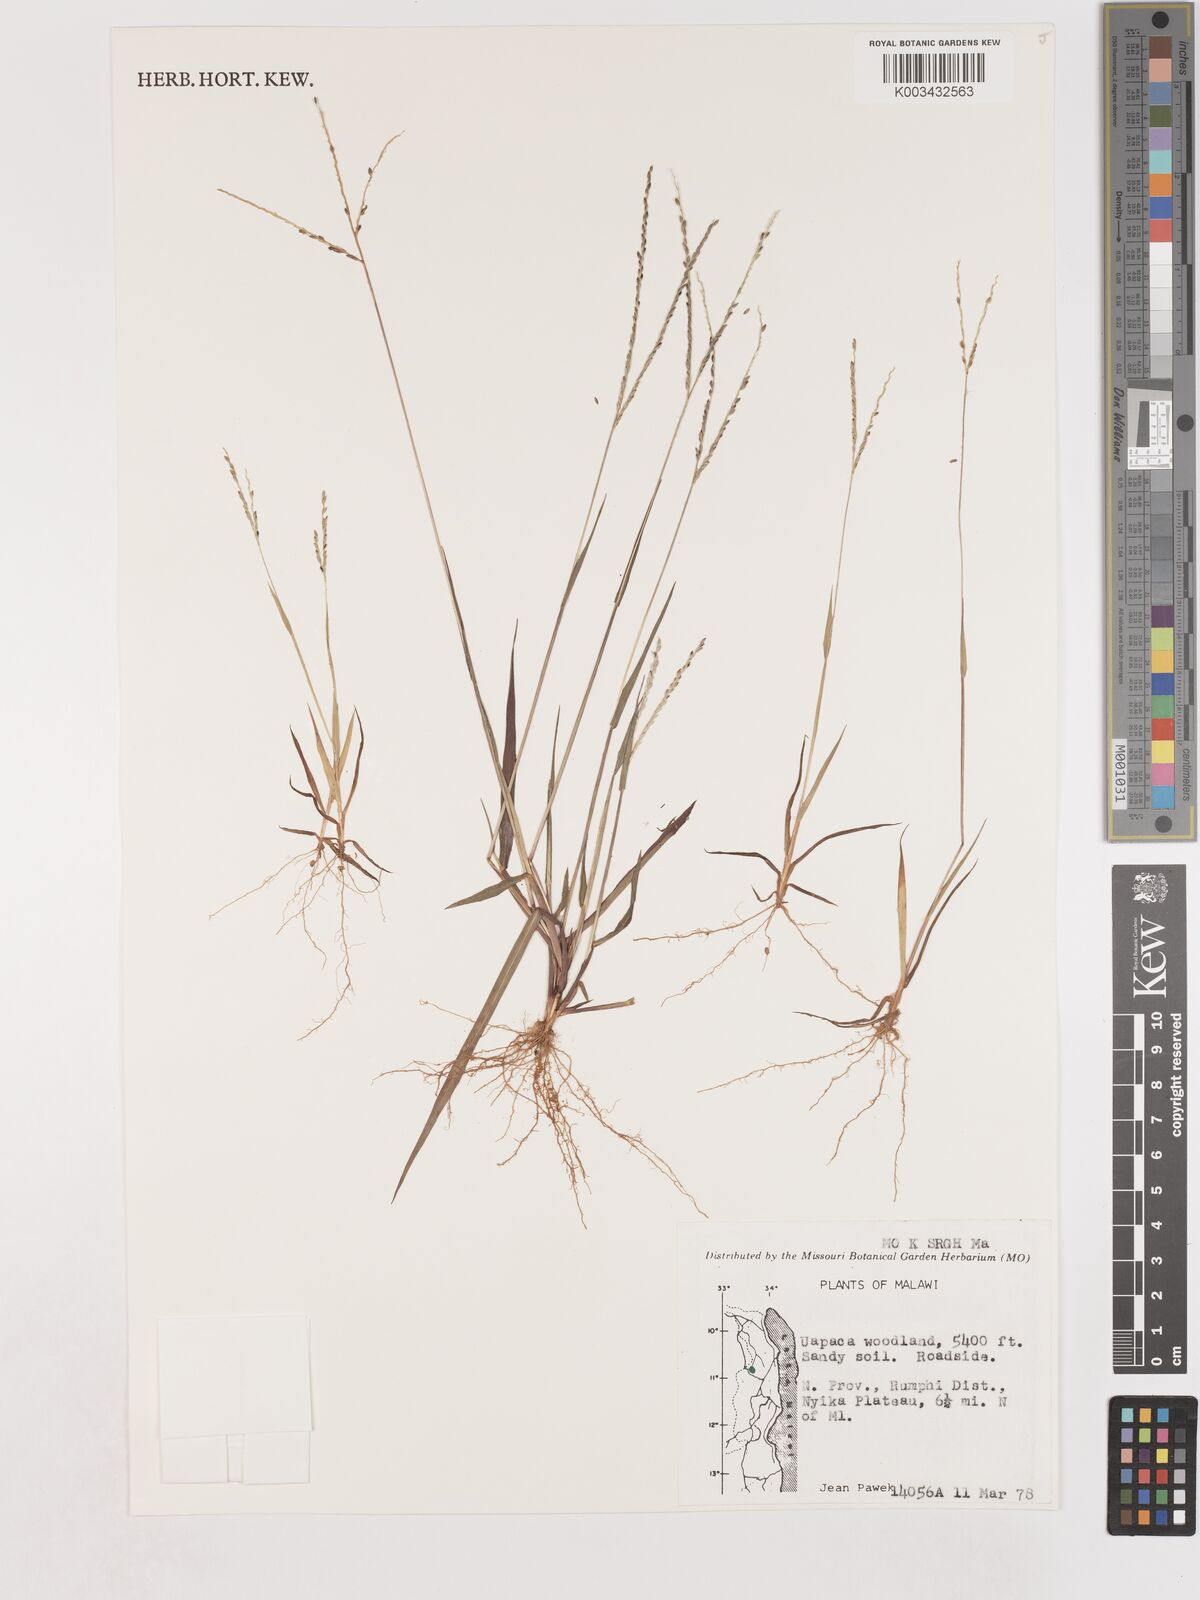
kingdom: Plantae
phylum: Tracheophyta
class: Liliopsida
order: Poales
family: Poaceae
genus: Digitaria
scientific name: Digitaria spec
